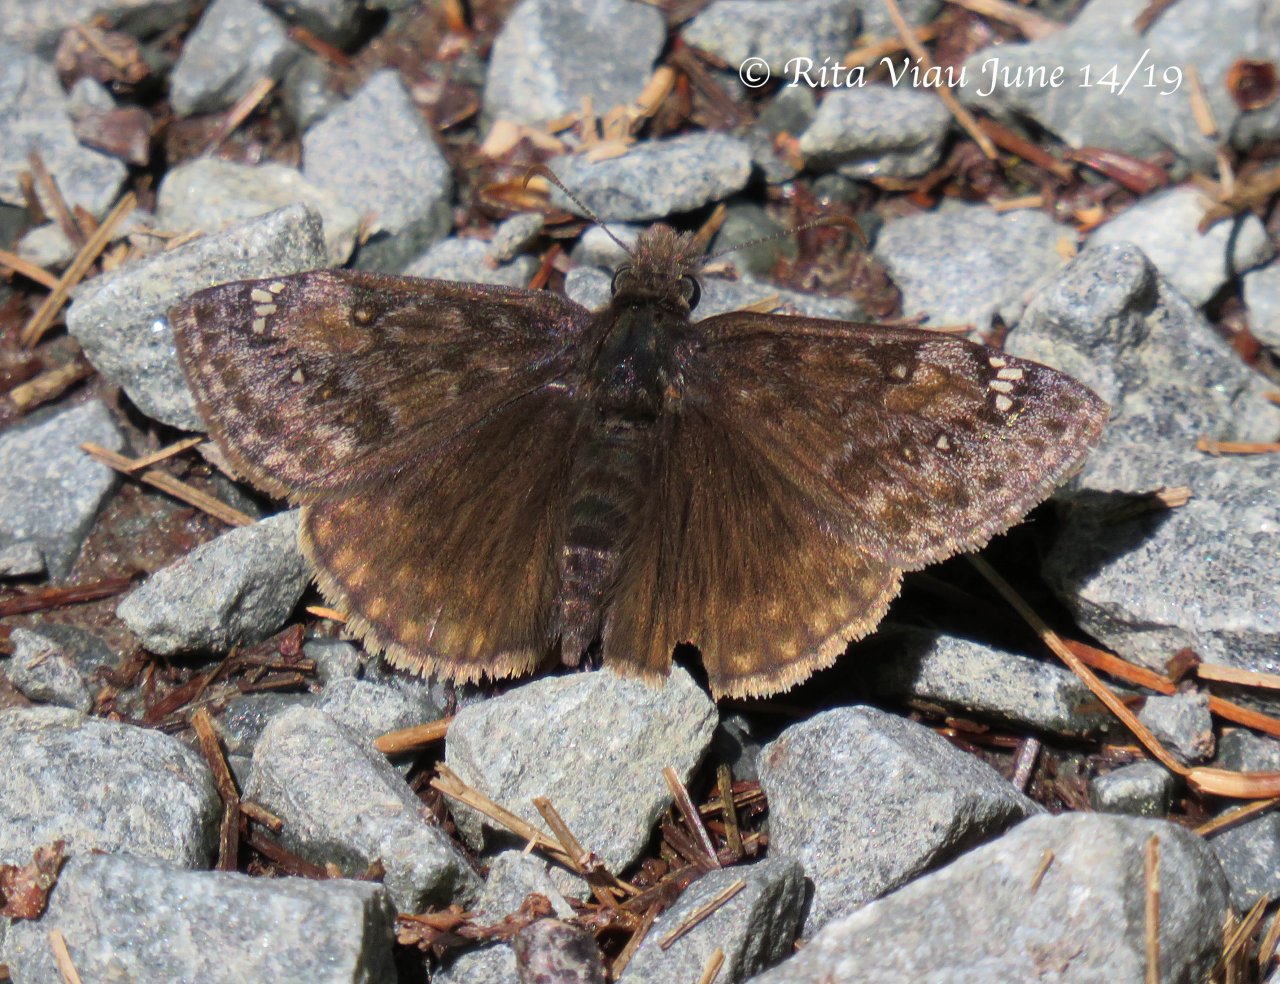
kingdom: Animalia
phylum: Arthropoda
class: Insecta
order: Lepidoptera
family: Hesperiidae
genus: Gesta
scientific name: Gesta
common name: Juvenal's Duskywing
